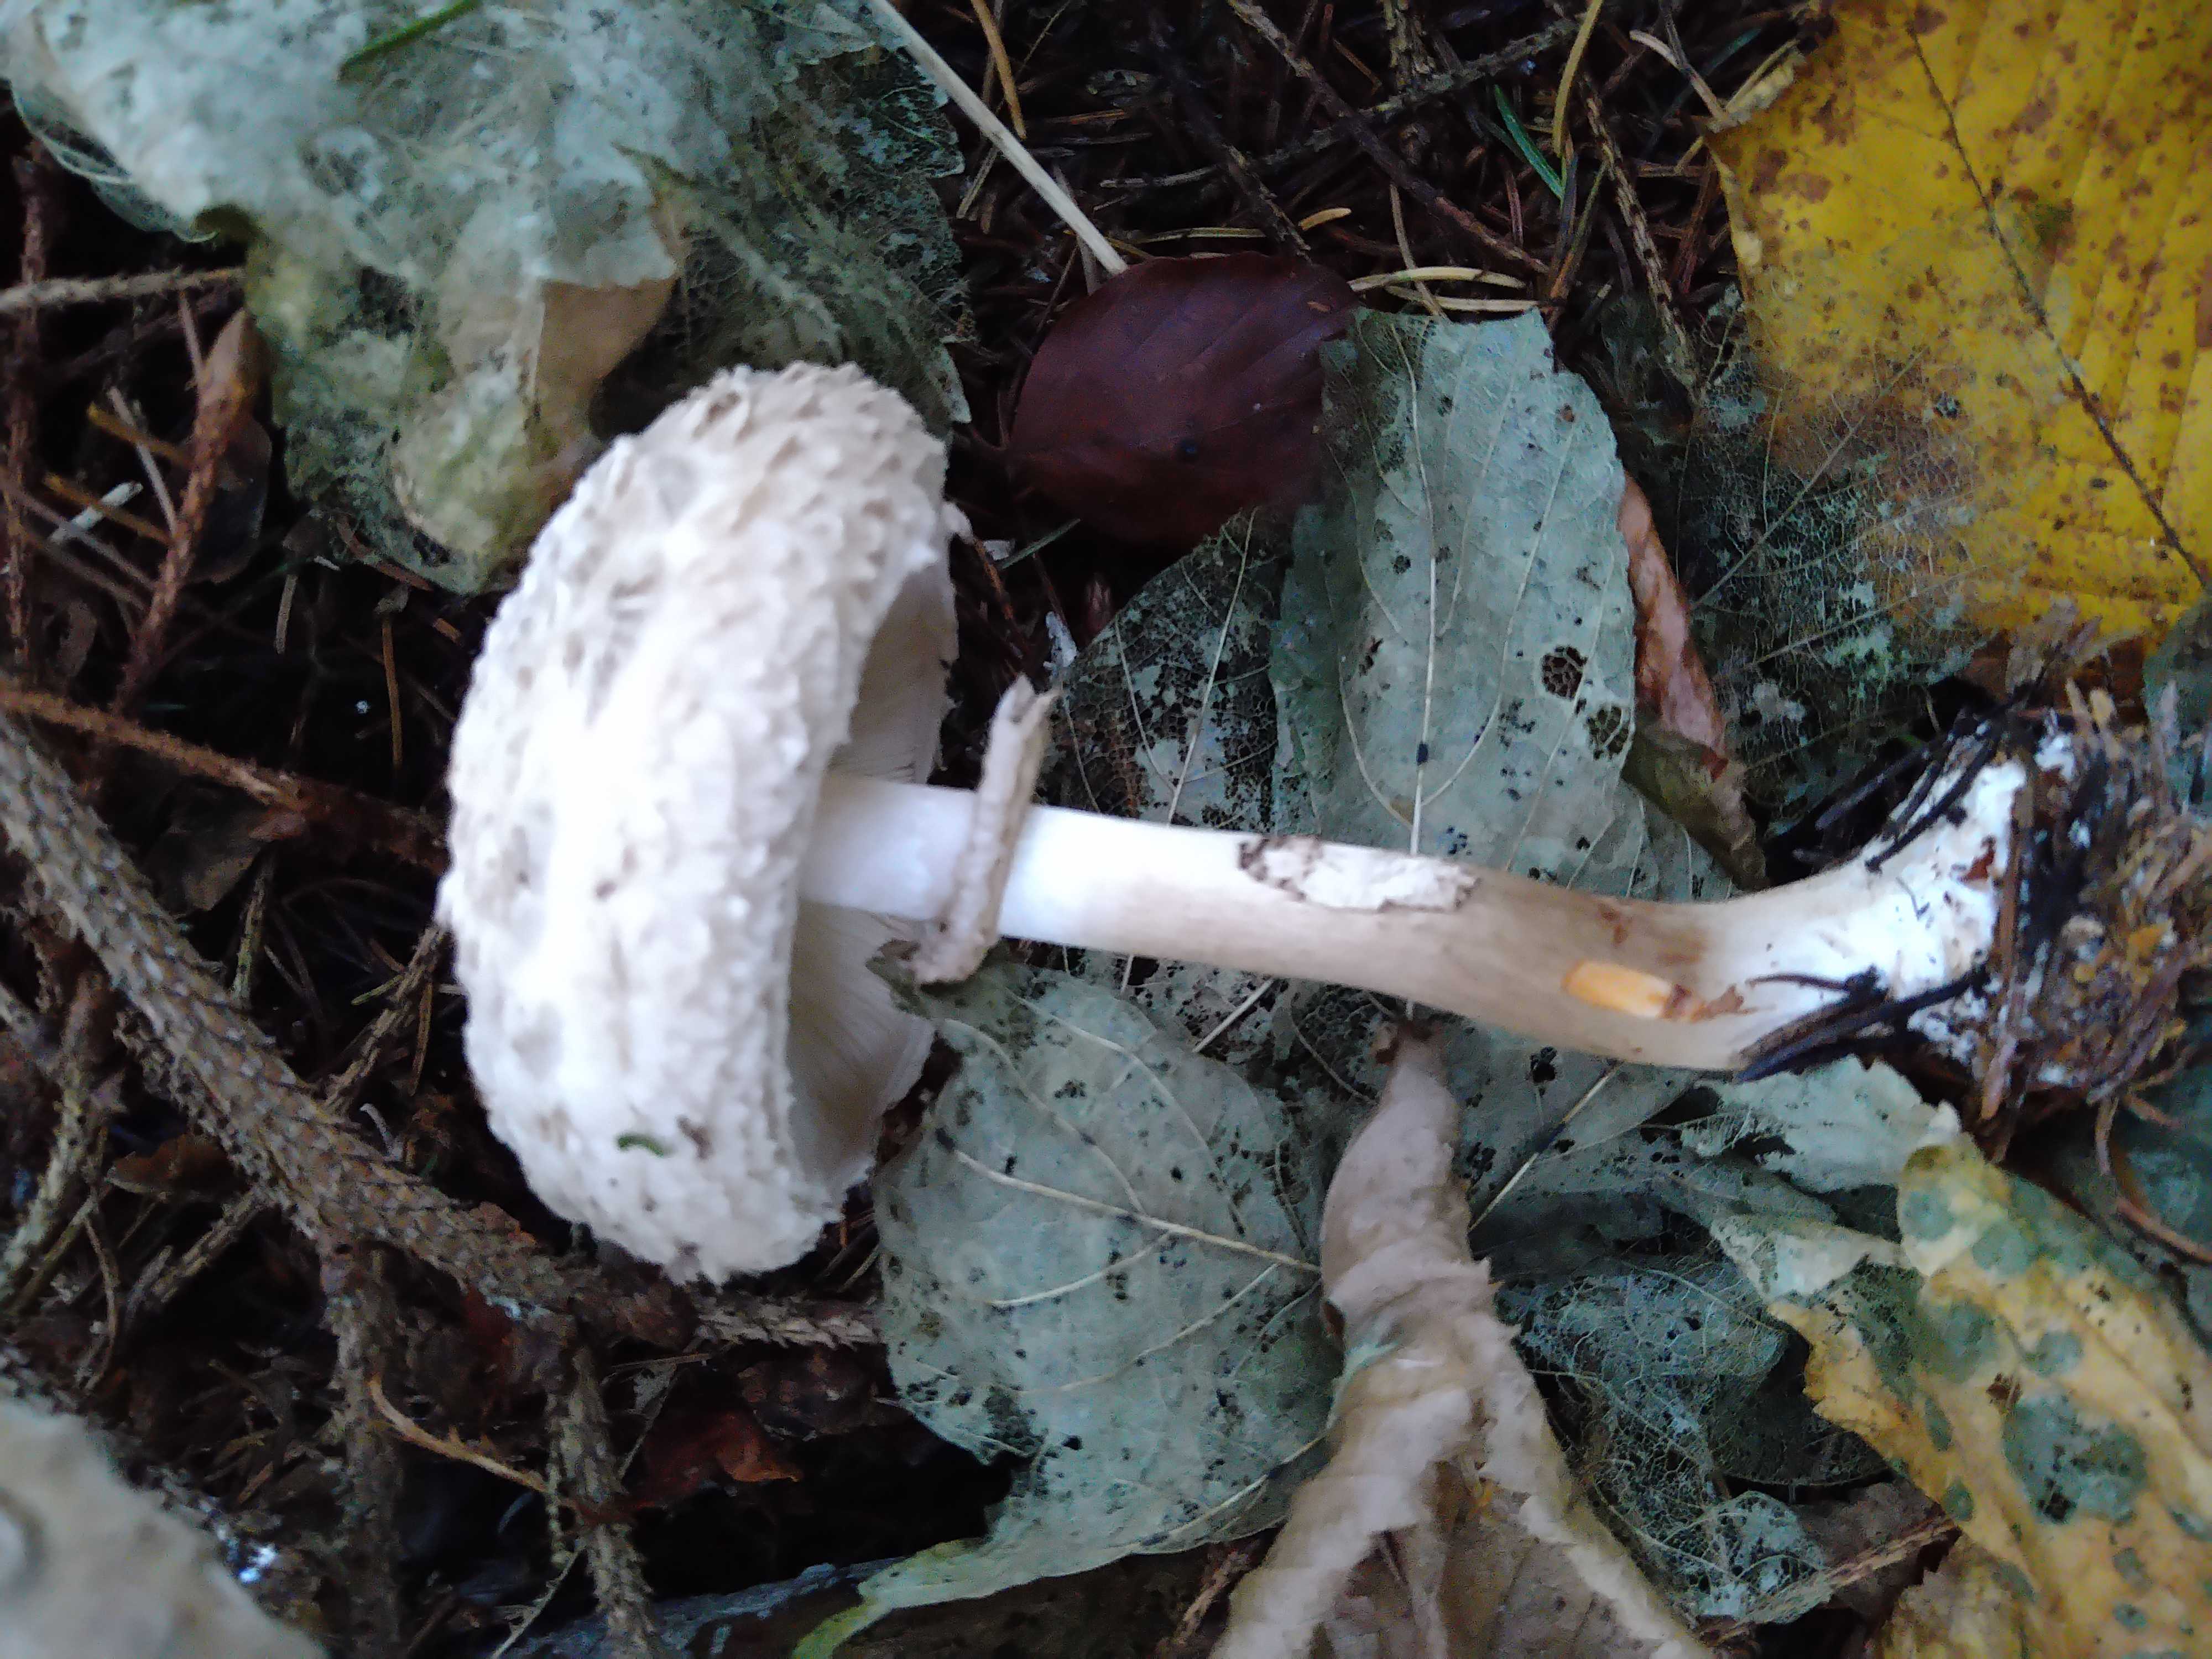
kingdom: Fungi
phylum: Basidiomycota
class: Agaricomycetes
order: Agaricales
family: Agaricaceae
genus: Chlorophyllum
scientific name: Chlorophyllum olivieri
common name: almindelig rabarberhat
